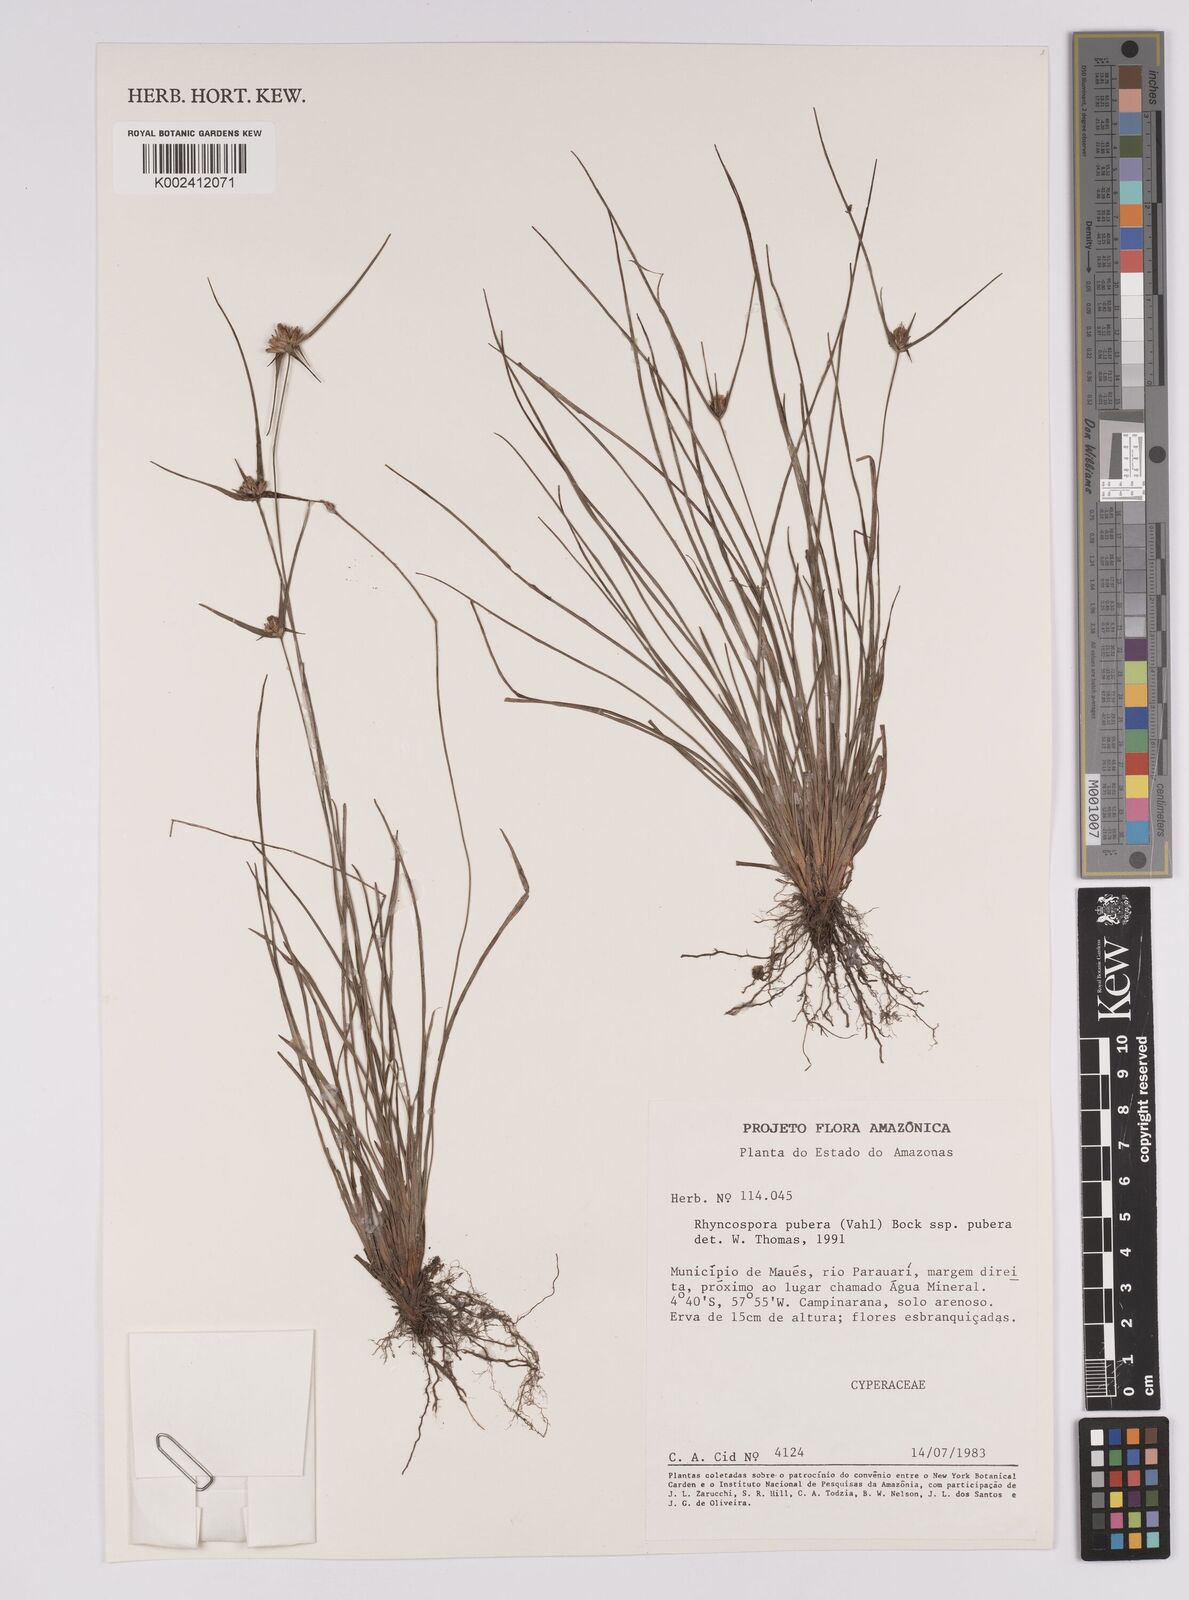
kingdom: Plantae
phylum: Tracheophyta
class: Liliopsida
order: Poales
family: Cyperaceae
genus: Rhynchospora
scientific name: Rhynchospora pubera
